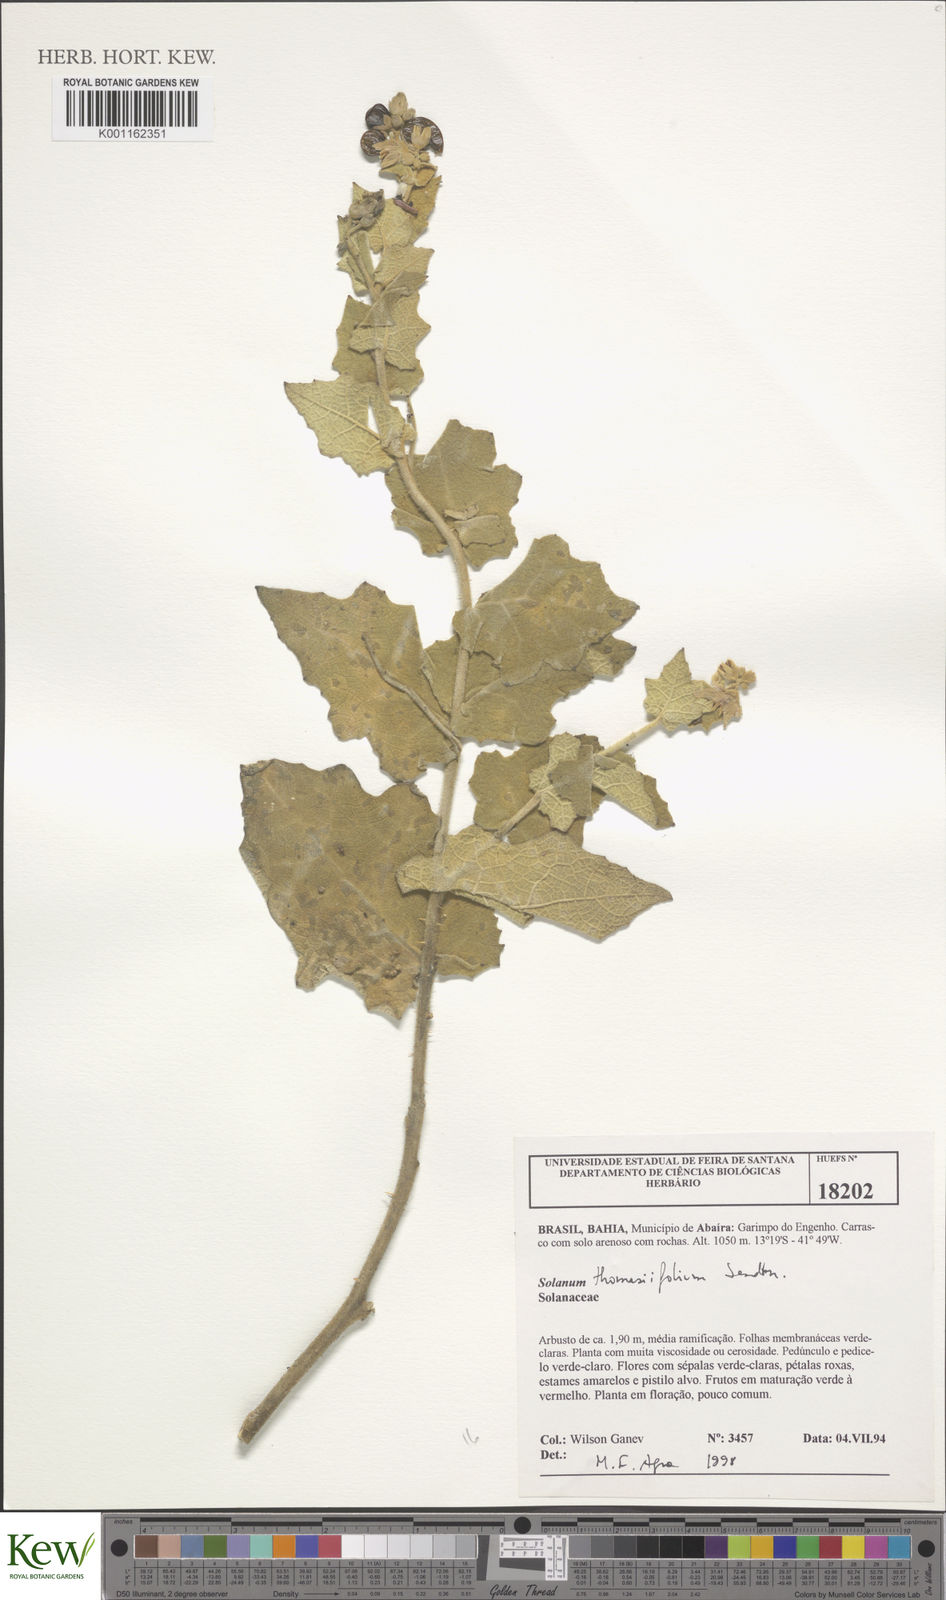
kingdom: Plantae
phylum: Tracheophyta
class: Magnoliopsida
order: Solanales
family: Solanaceae
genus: Solanum
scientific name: Solanum thomasiifolium
